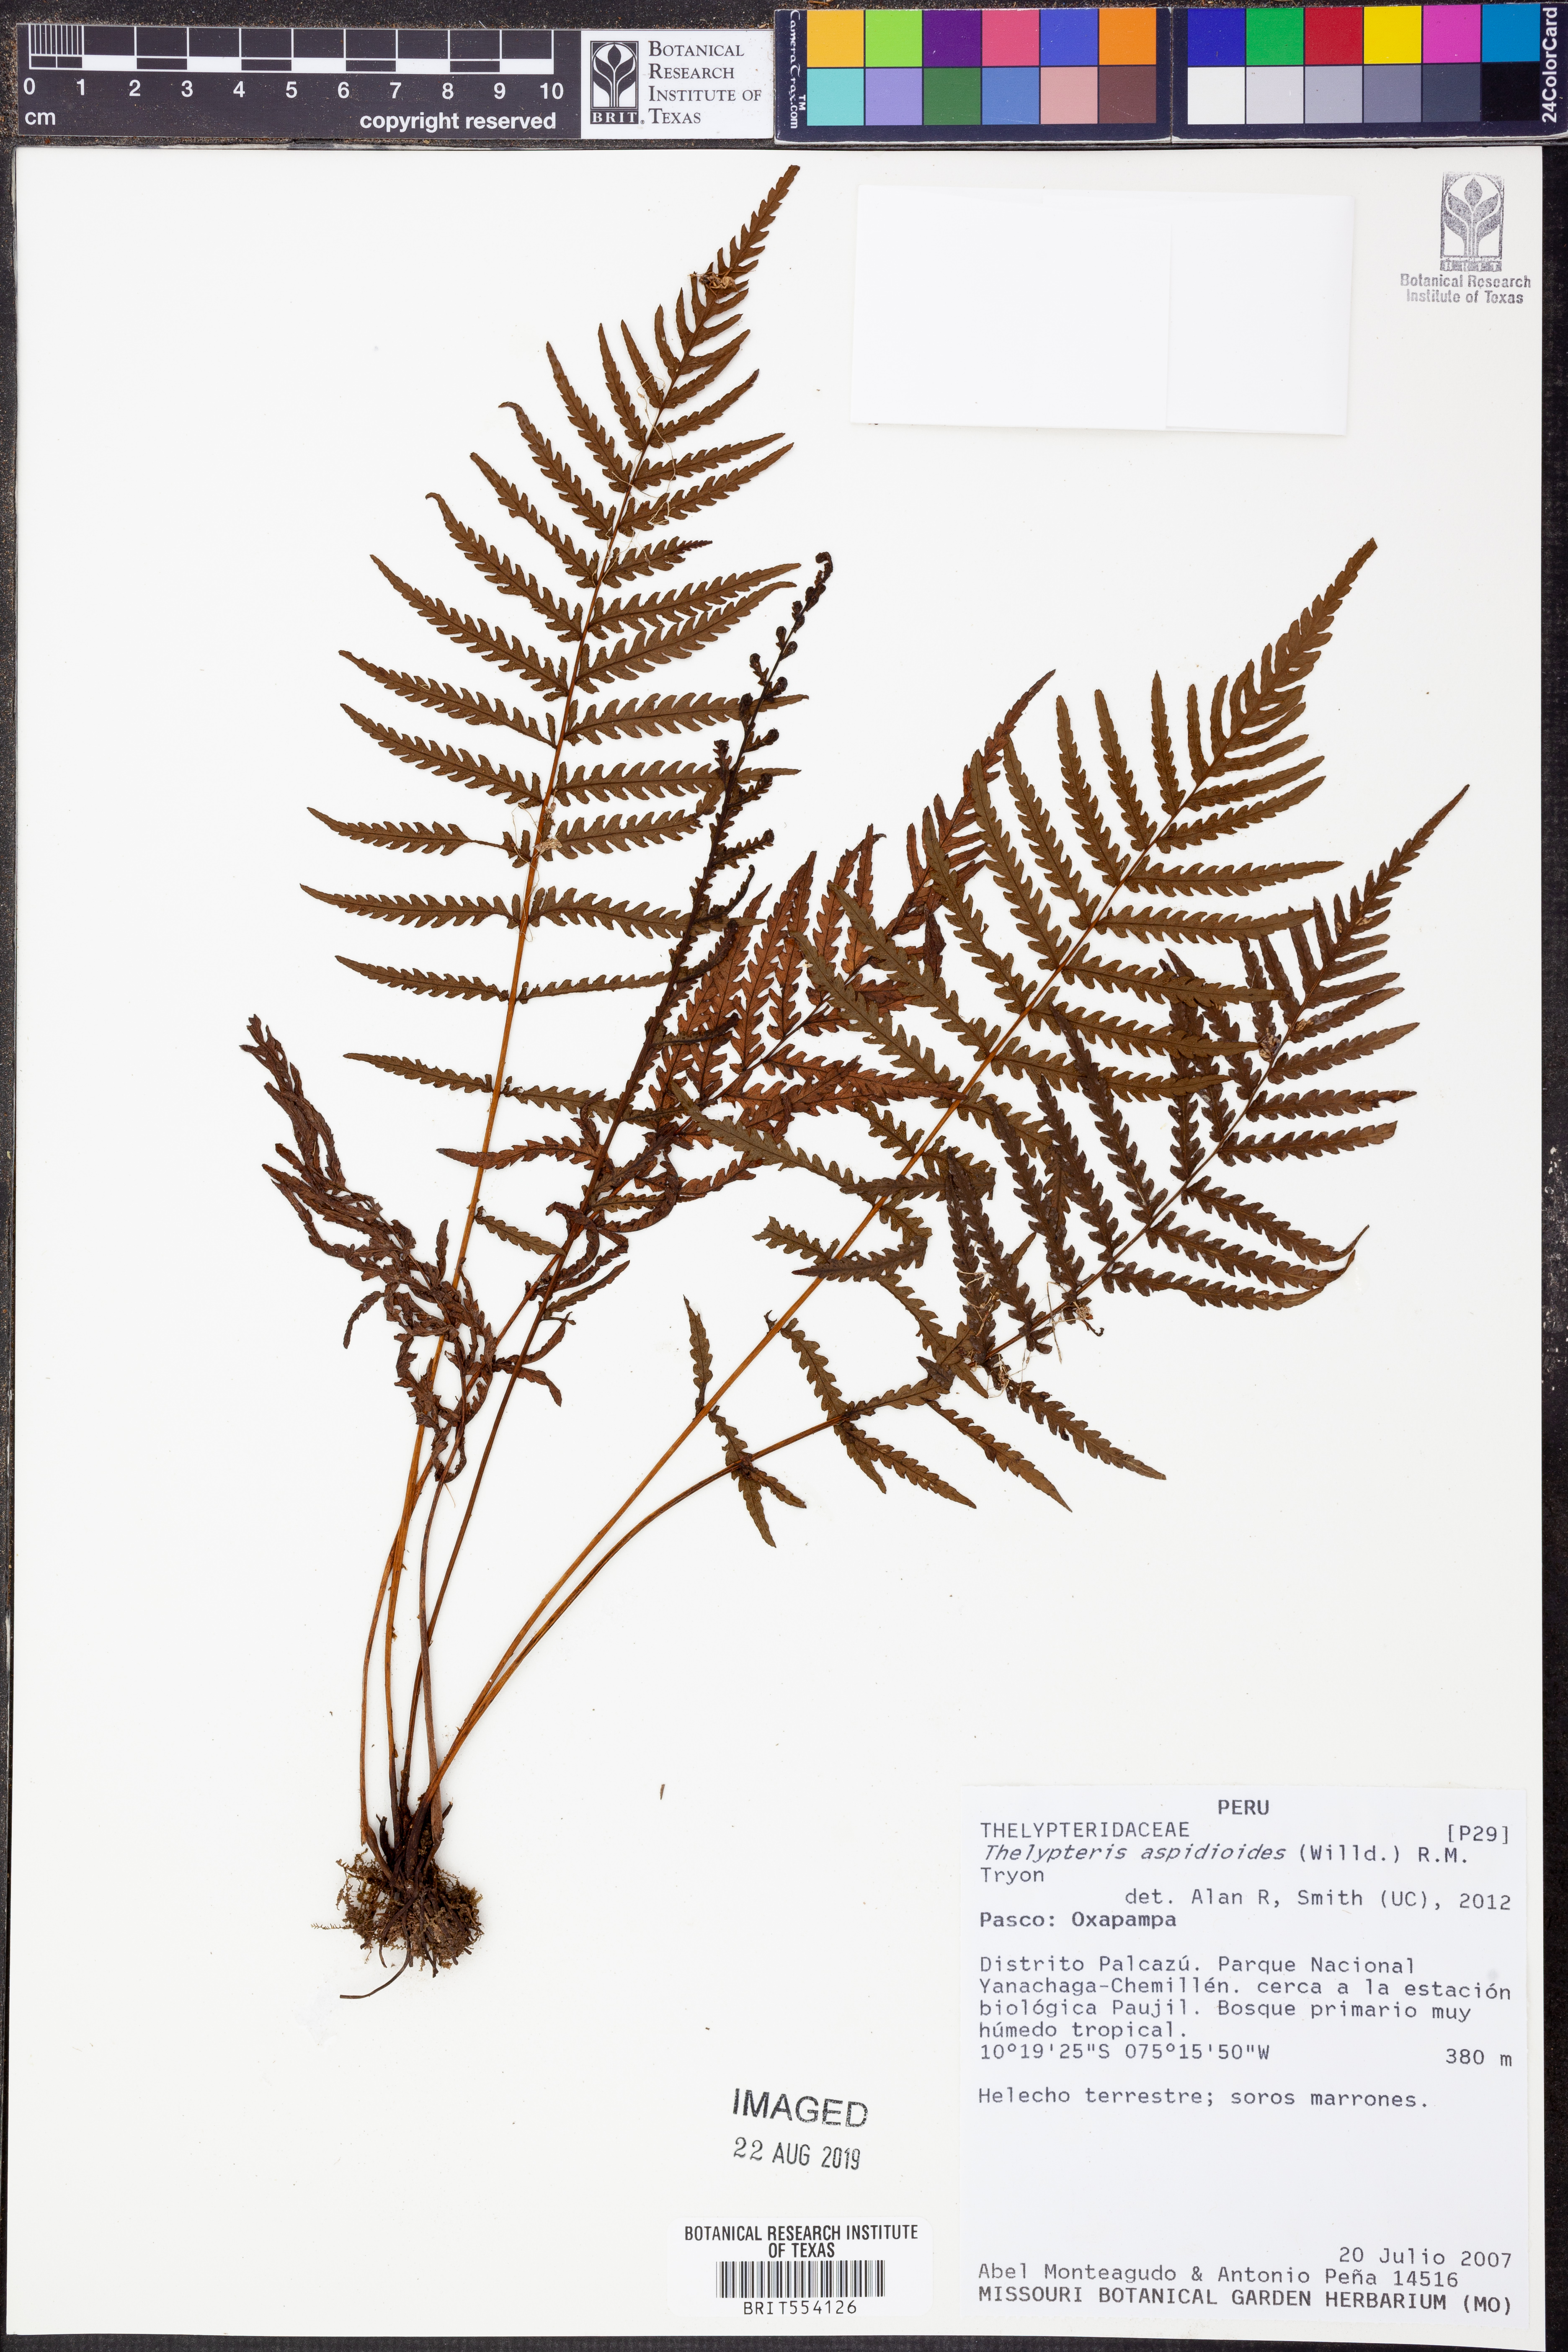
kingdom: Plantae
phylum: Tracheophyta
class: Polypodiopsida
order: Polypodiales
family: Thelypteridaceae
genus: Amauropelta
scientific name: Amauropelta aspidioides
